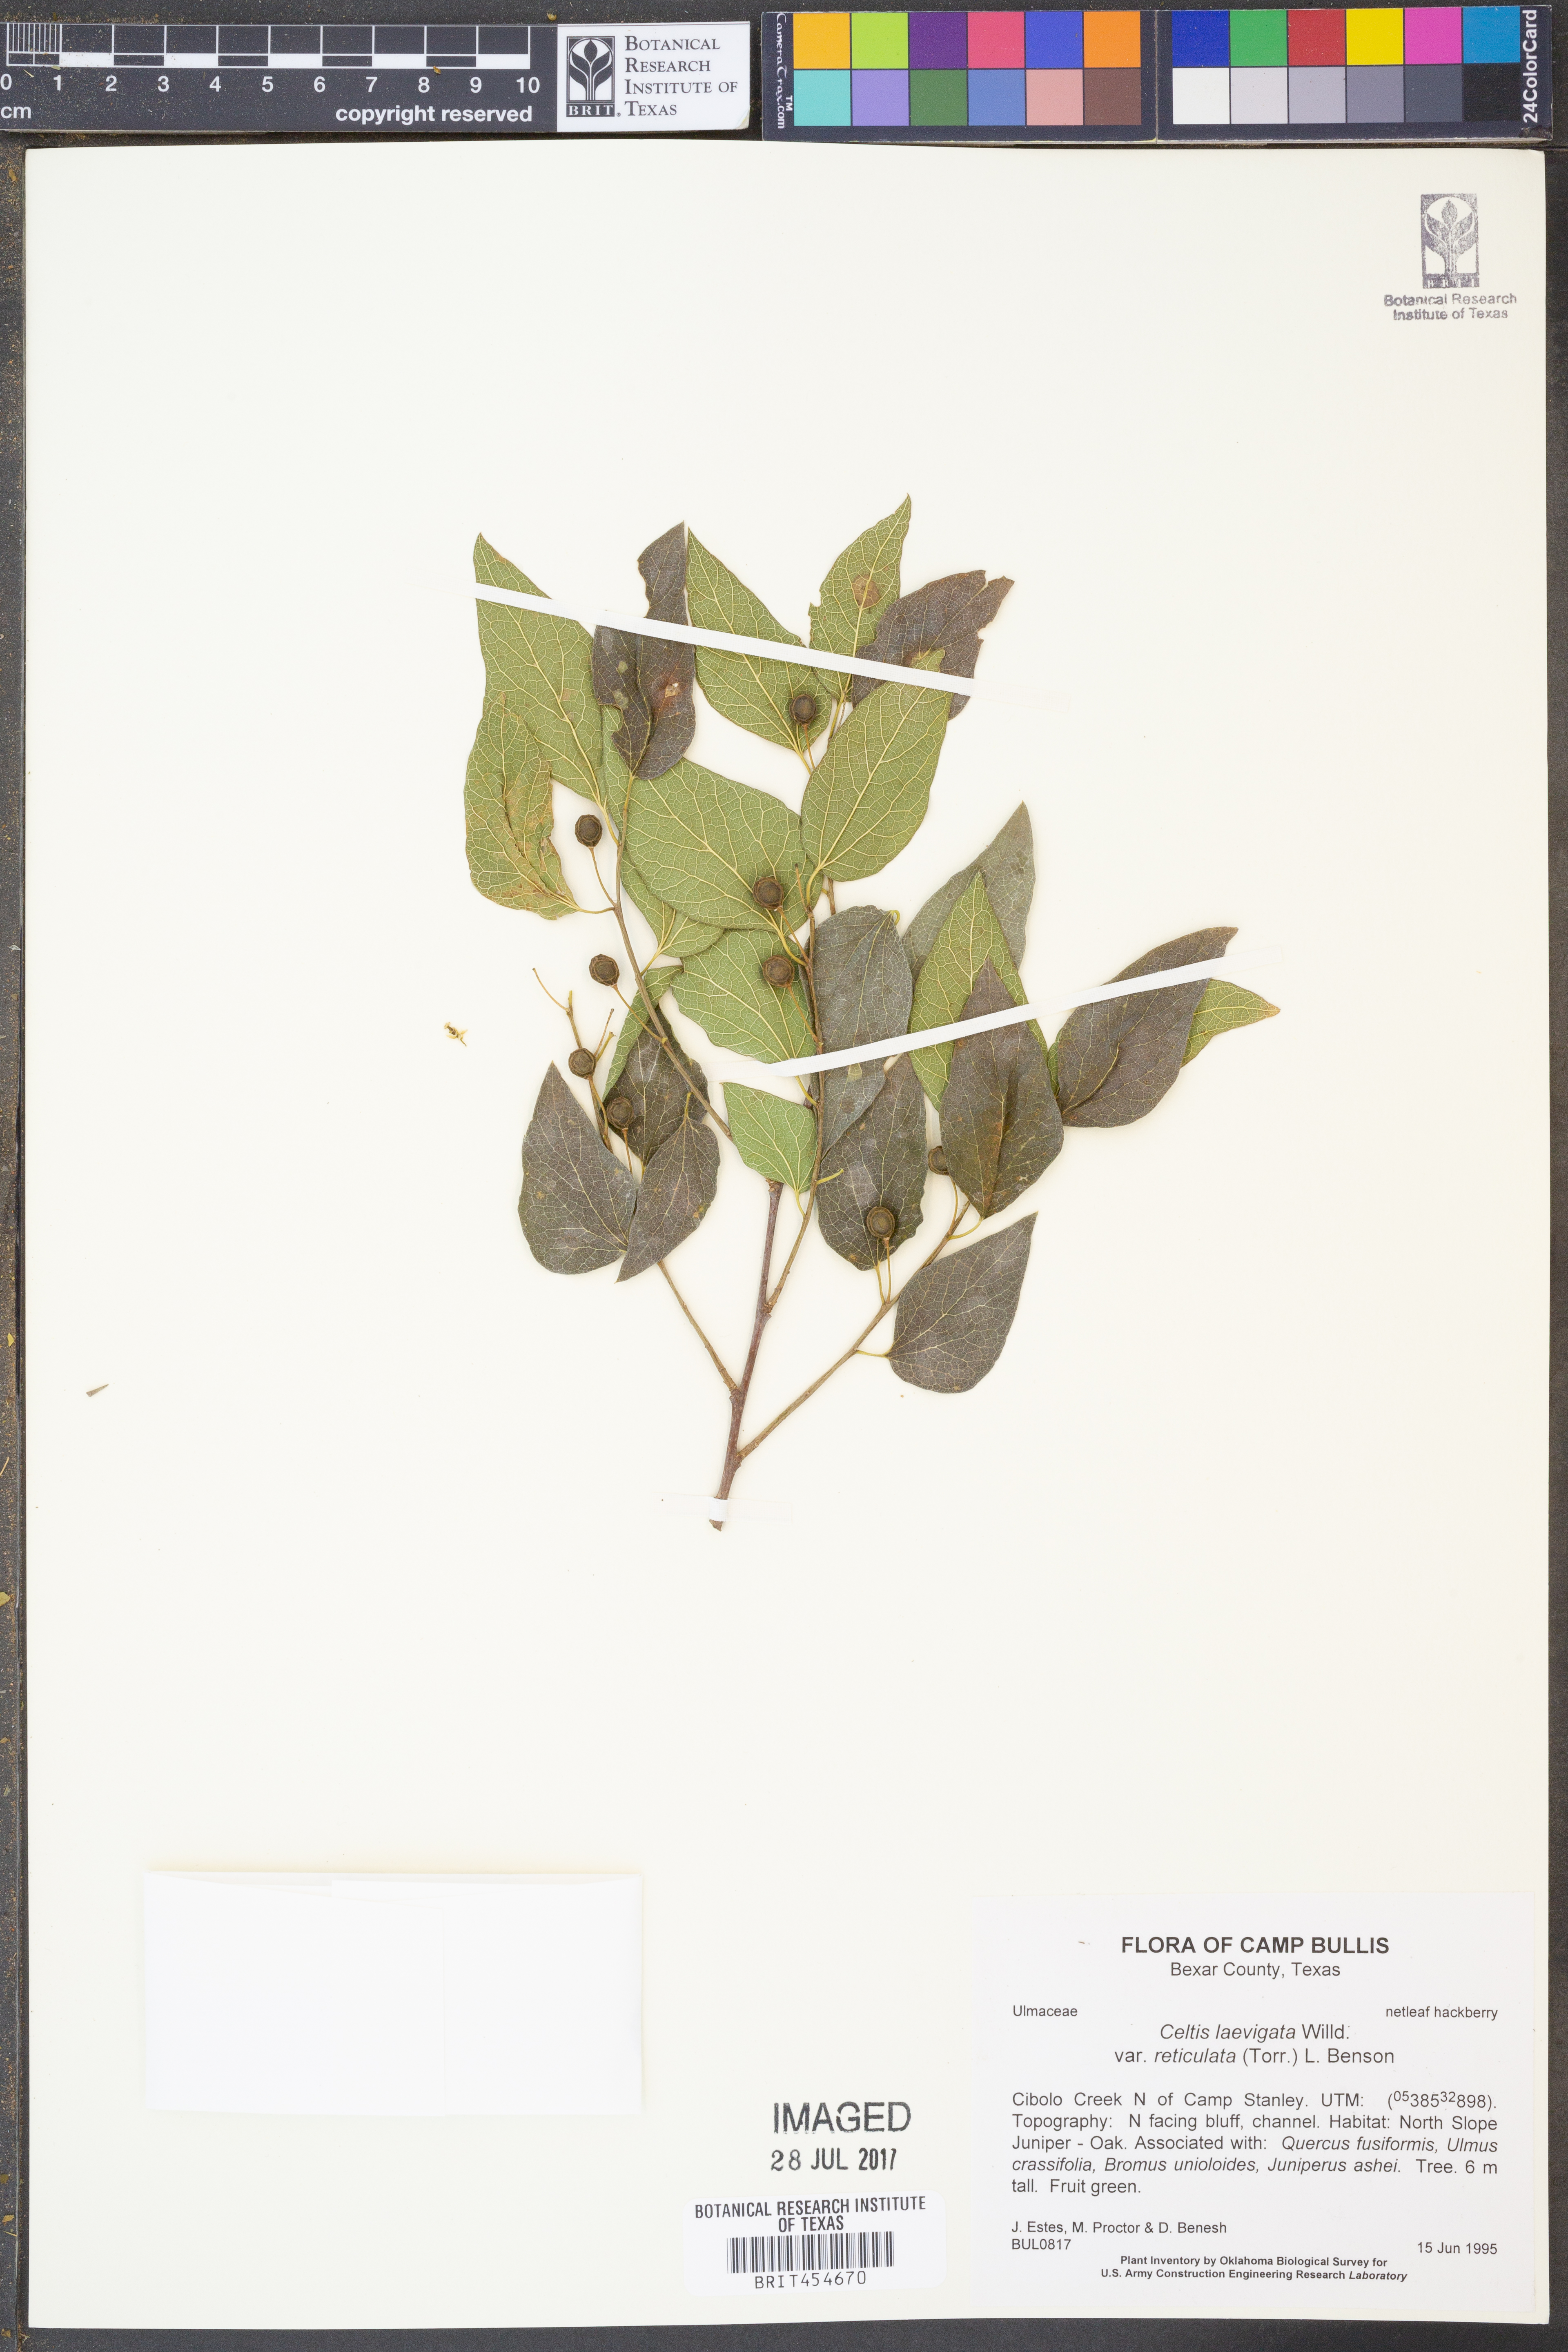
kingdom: Plantae
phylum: Tracheophyta
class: Magnoliopsida
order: Rosales
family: Cannabaceae
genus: Celtis
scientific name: Celtis reticulata
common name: Netleaf hackberry
